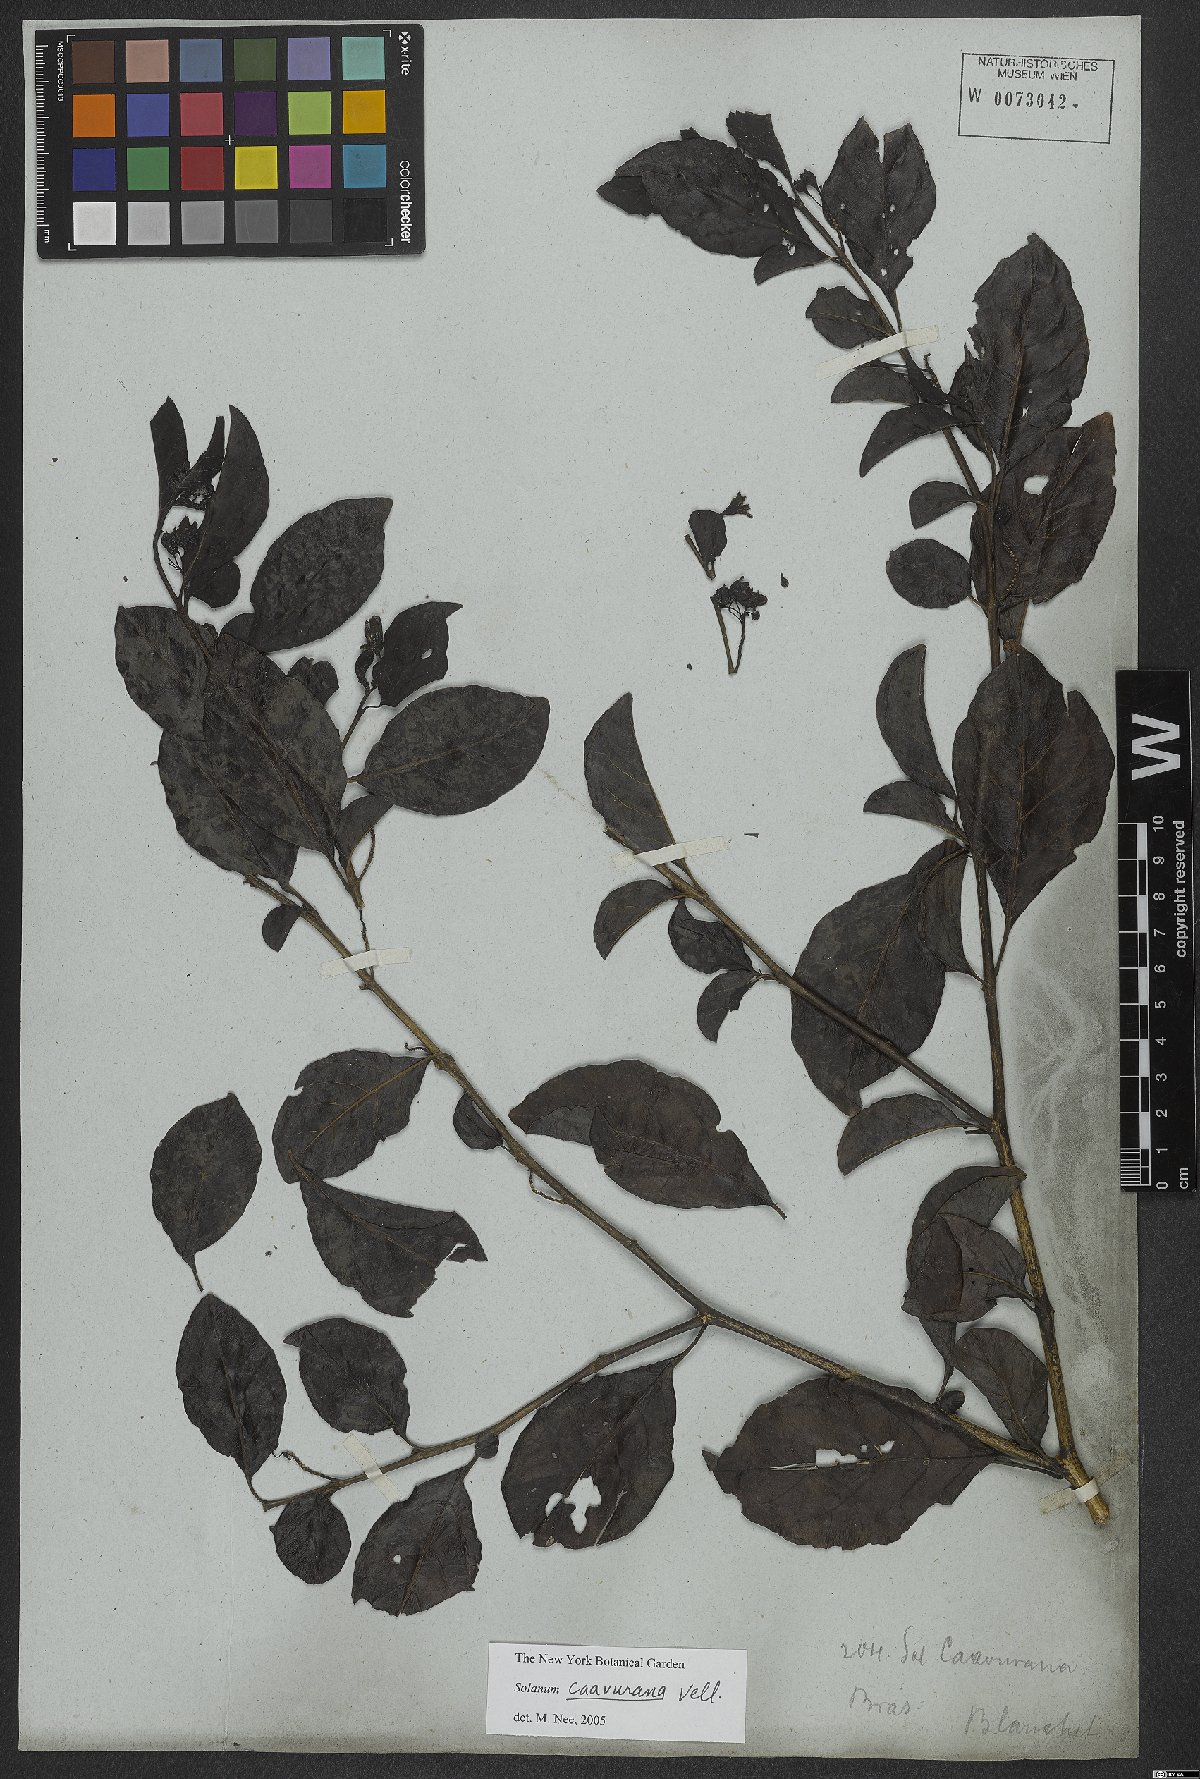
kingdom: Plantae
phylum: Tracheophyta
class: Magnoliopsida
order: Solanales
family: Solanaceae
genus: Solanum
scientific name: Solanum caavurana
